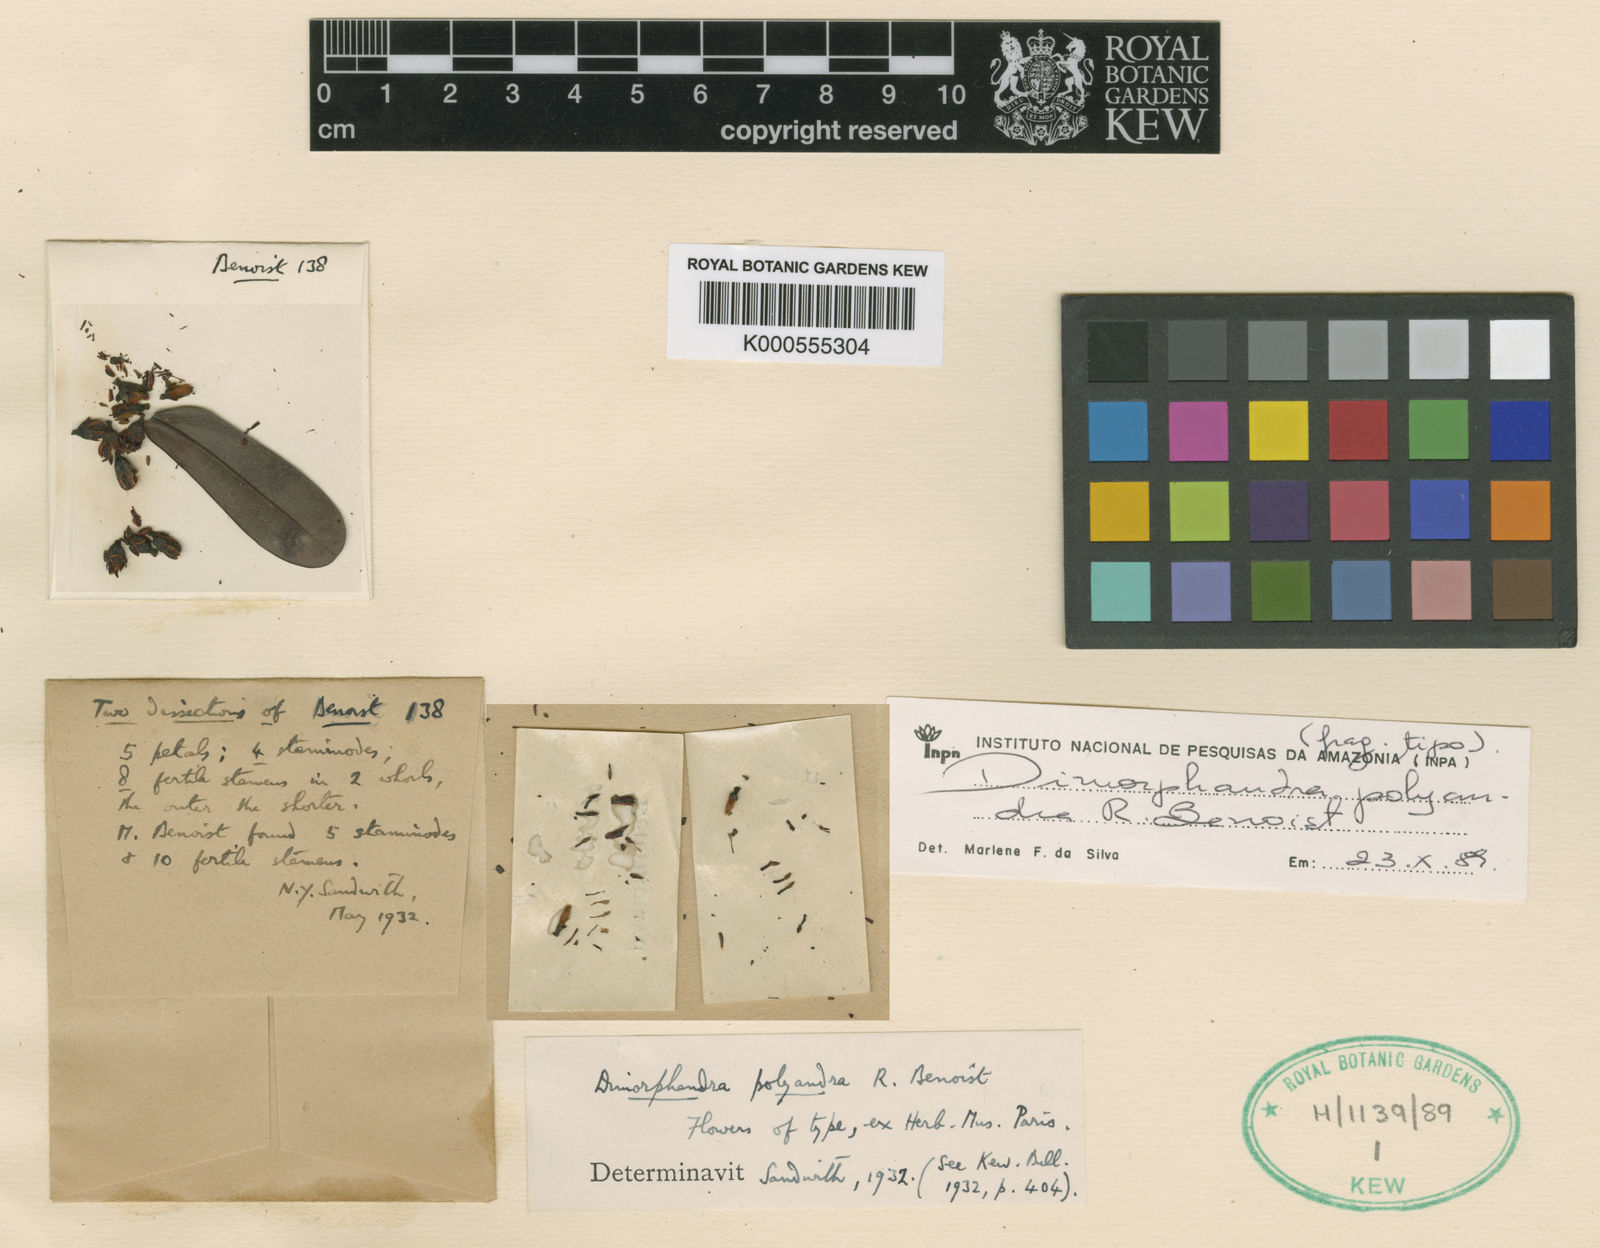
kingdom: Plantae
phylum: Tracheophyta
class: Magnoliopsida
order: Fabales
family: Fabaceae
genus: Dimorphandra
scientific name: Dimorphandra polyandra
